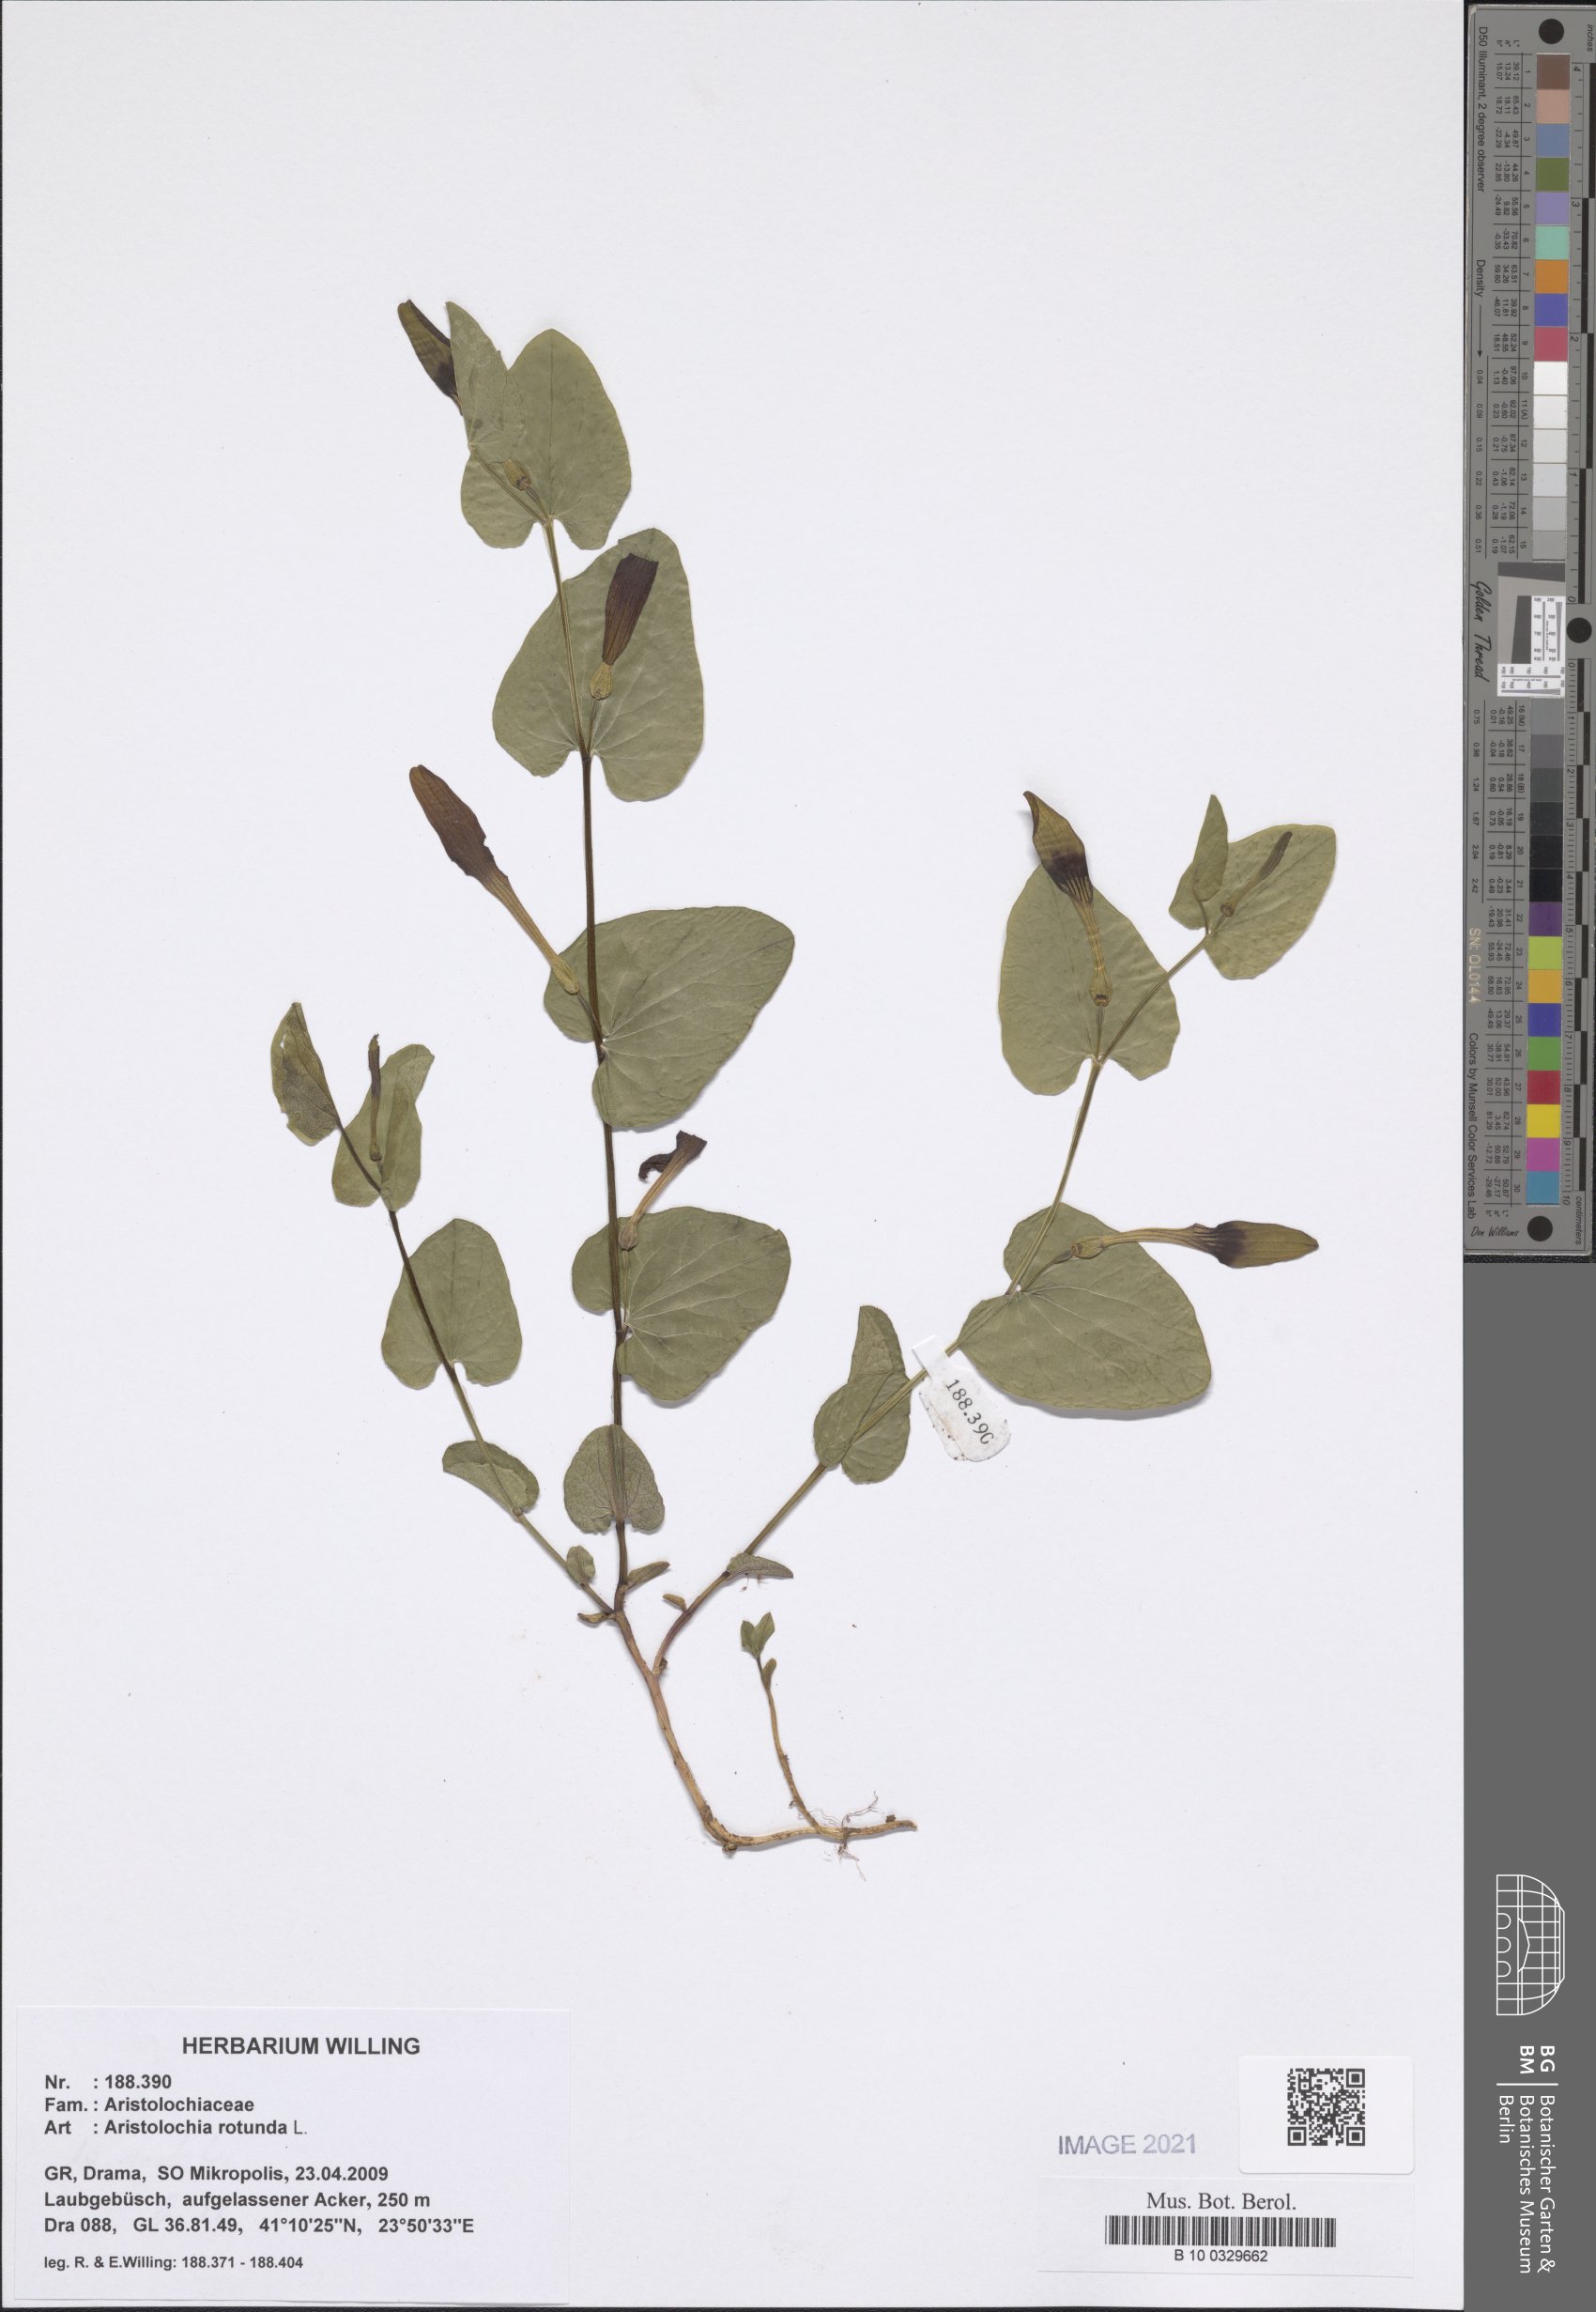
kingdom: Plantae
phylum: Tracheophyta
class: Magnoliopsida
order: Piperales
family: Aristolochiaceae
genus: Aristolochia
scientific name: Aristolochia rotunda
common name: Smearwort
